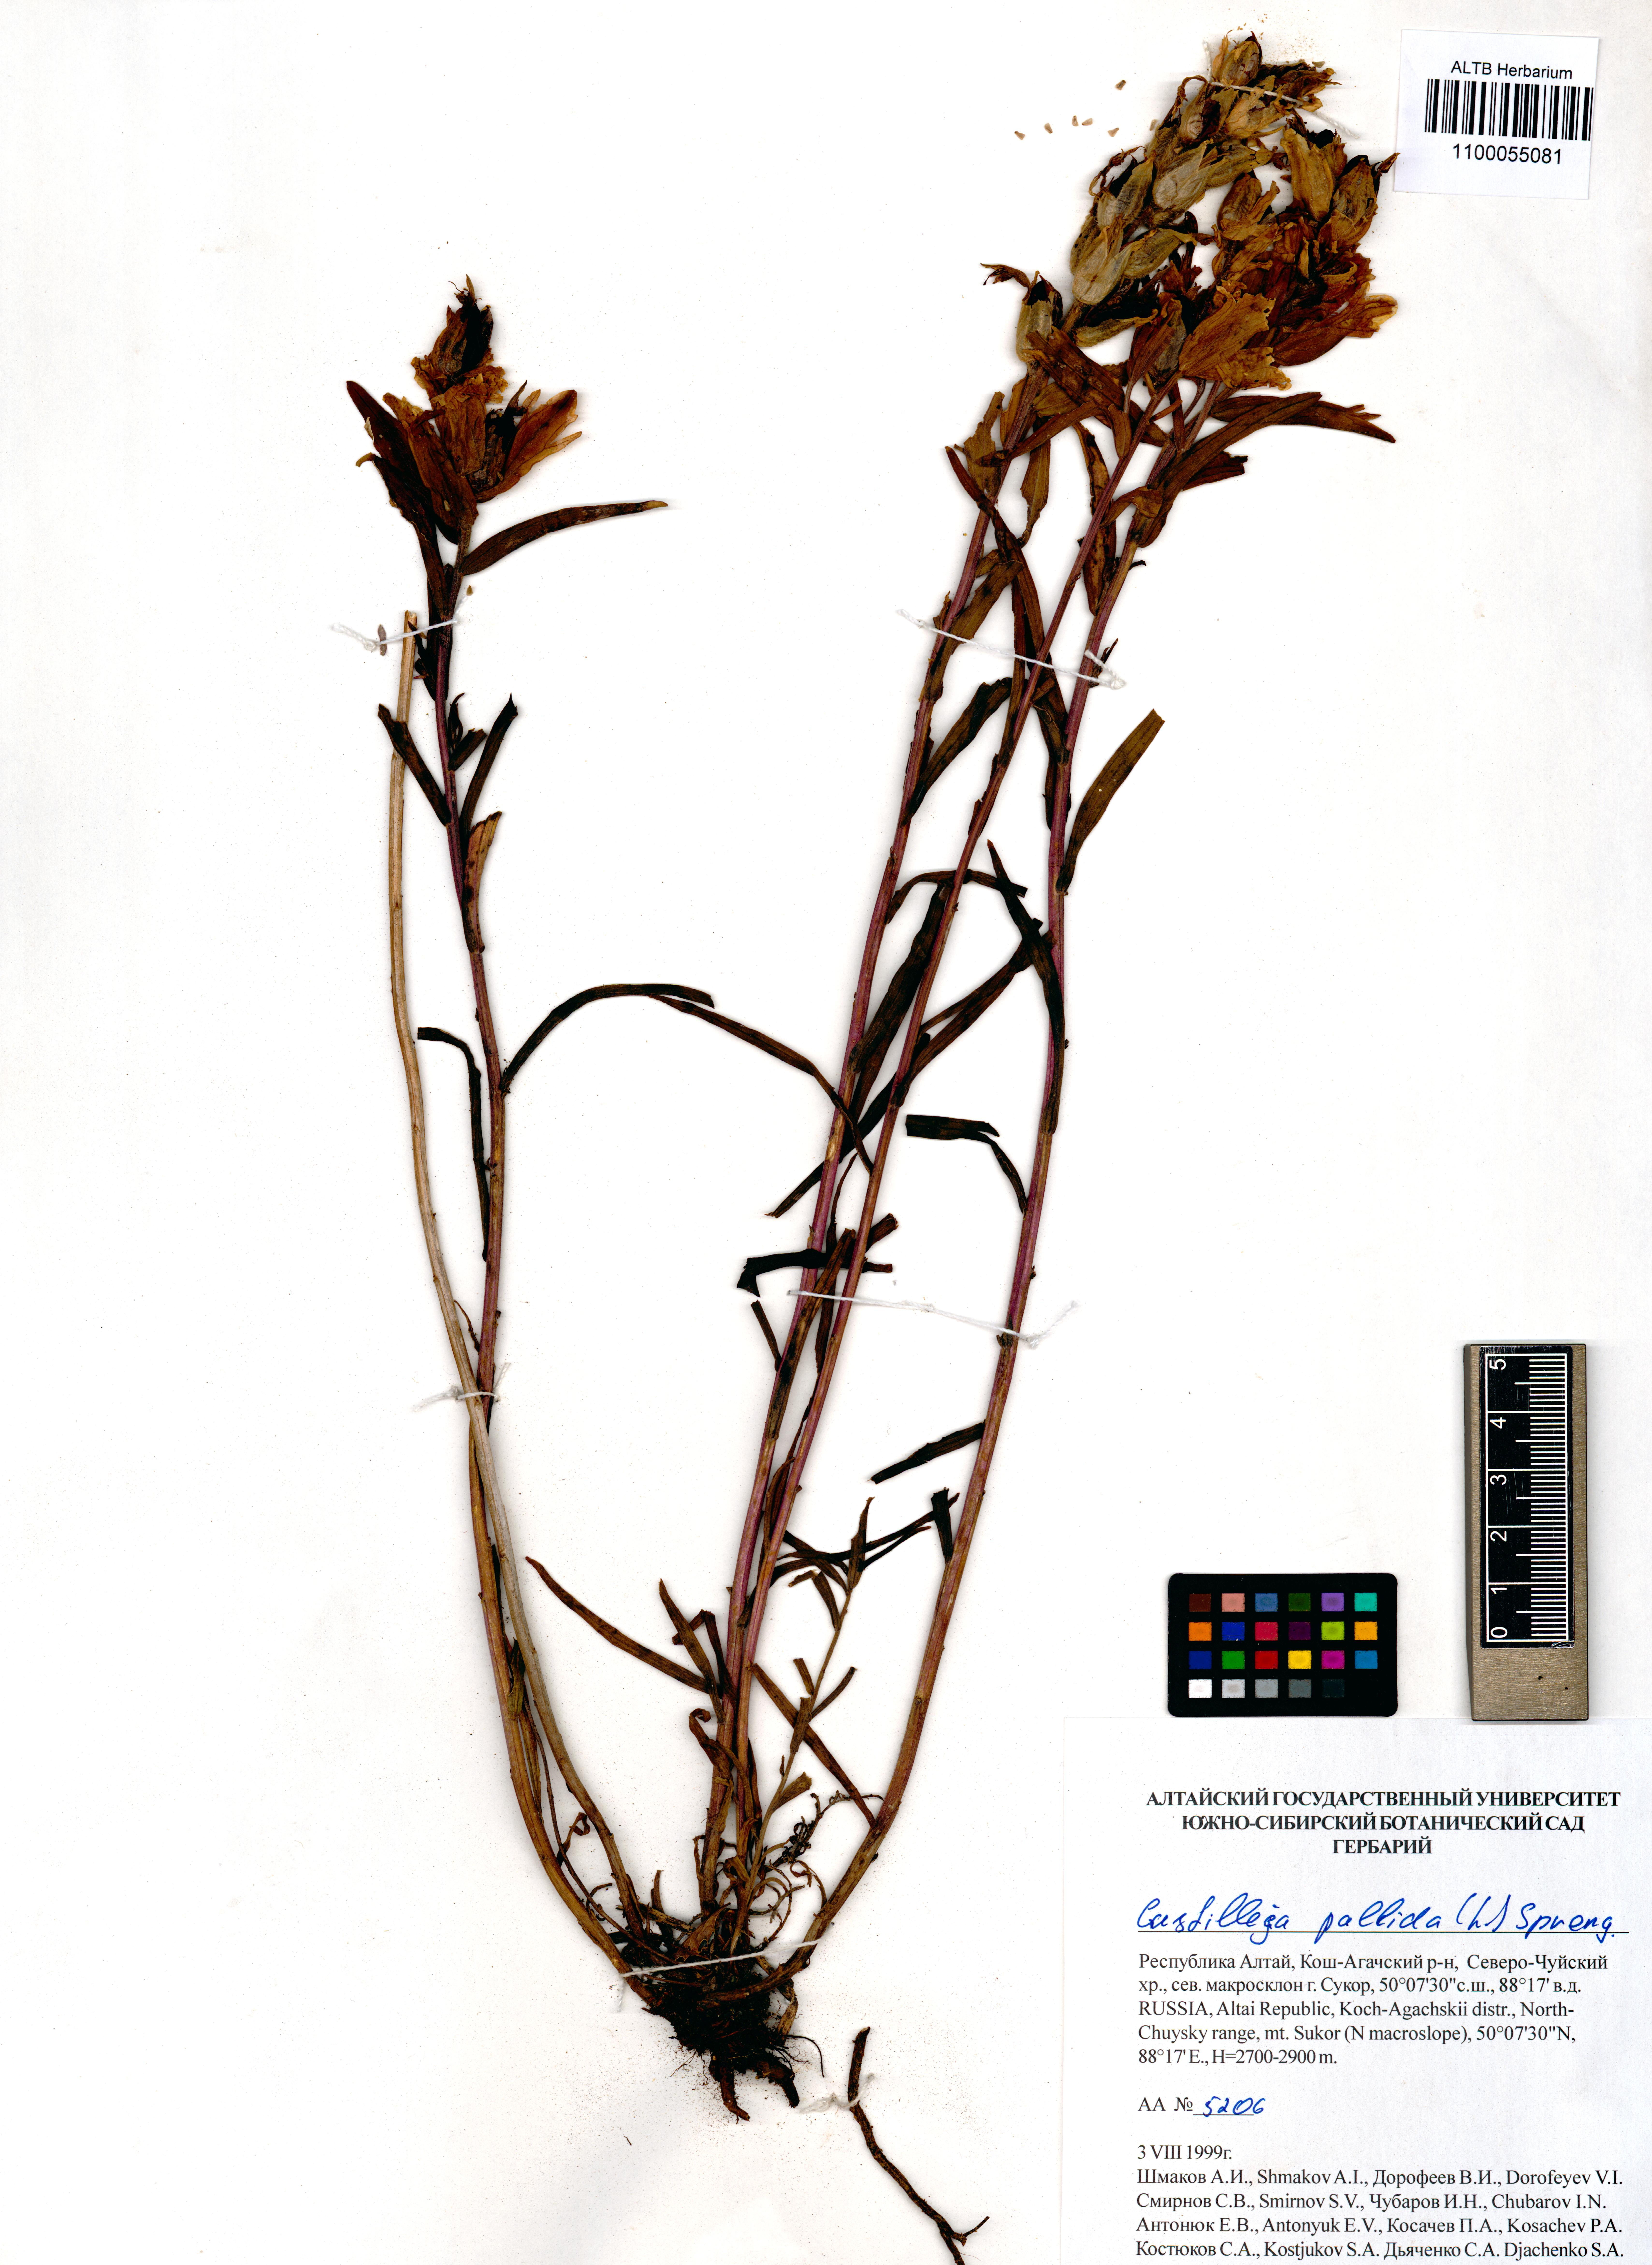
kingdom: Plantae
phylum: Tracheophyta
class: Magnoliopsida
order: Lamiales
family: Orobanchaceae
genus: Castilleja
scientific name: Castilleja pallida
